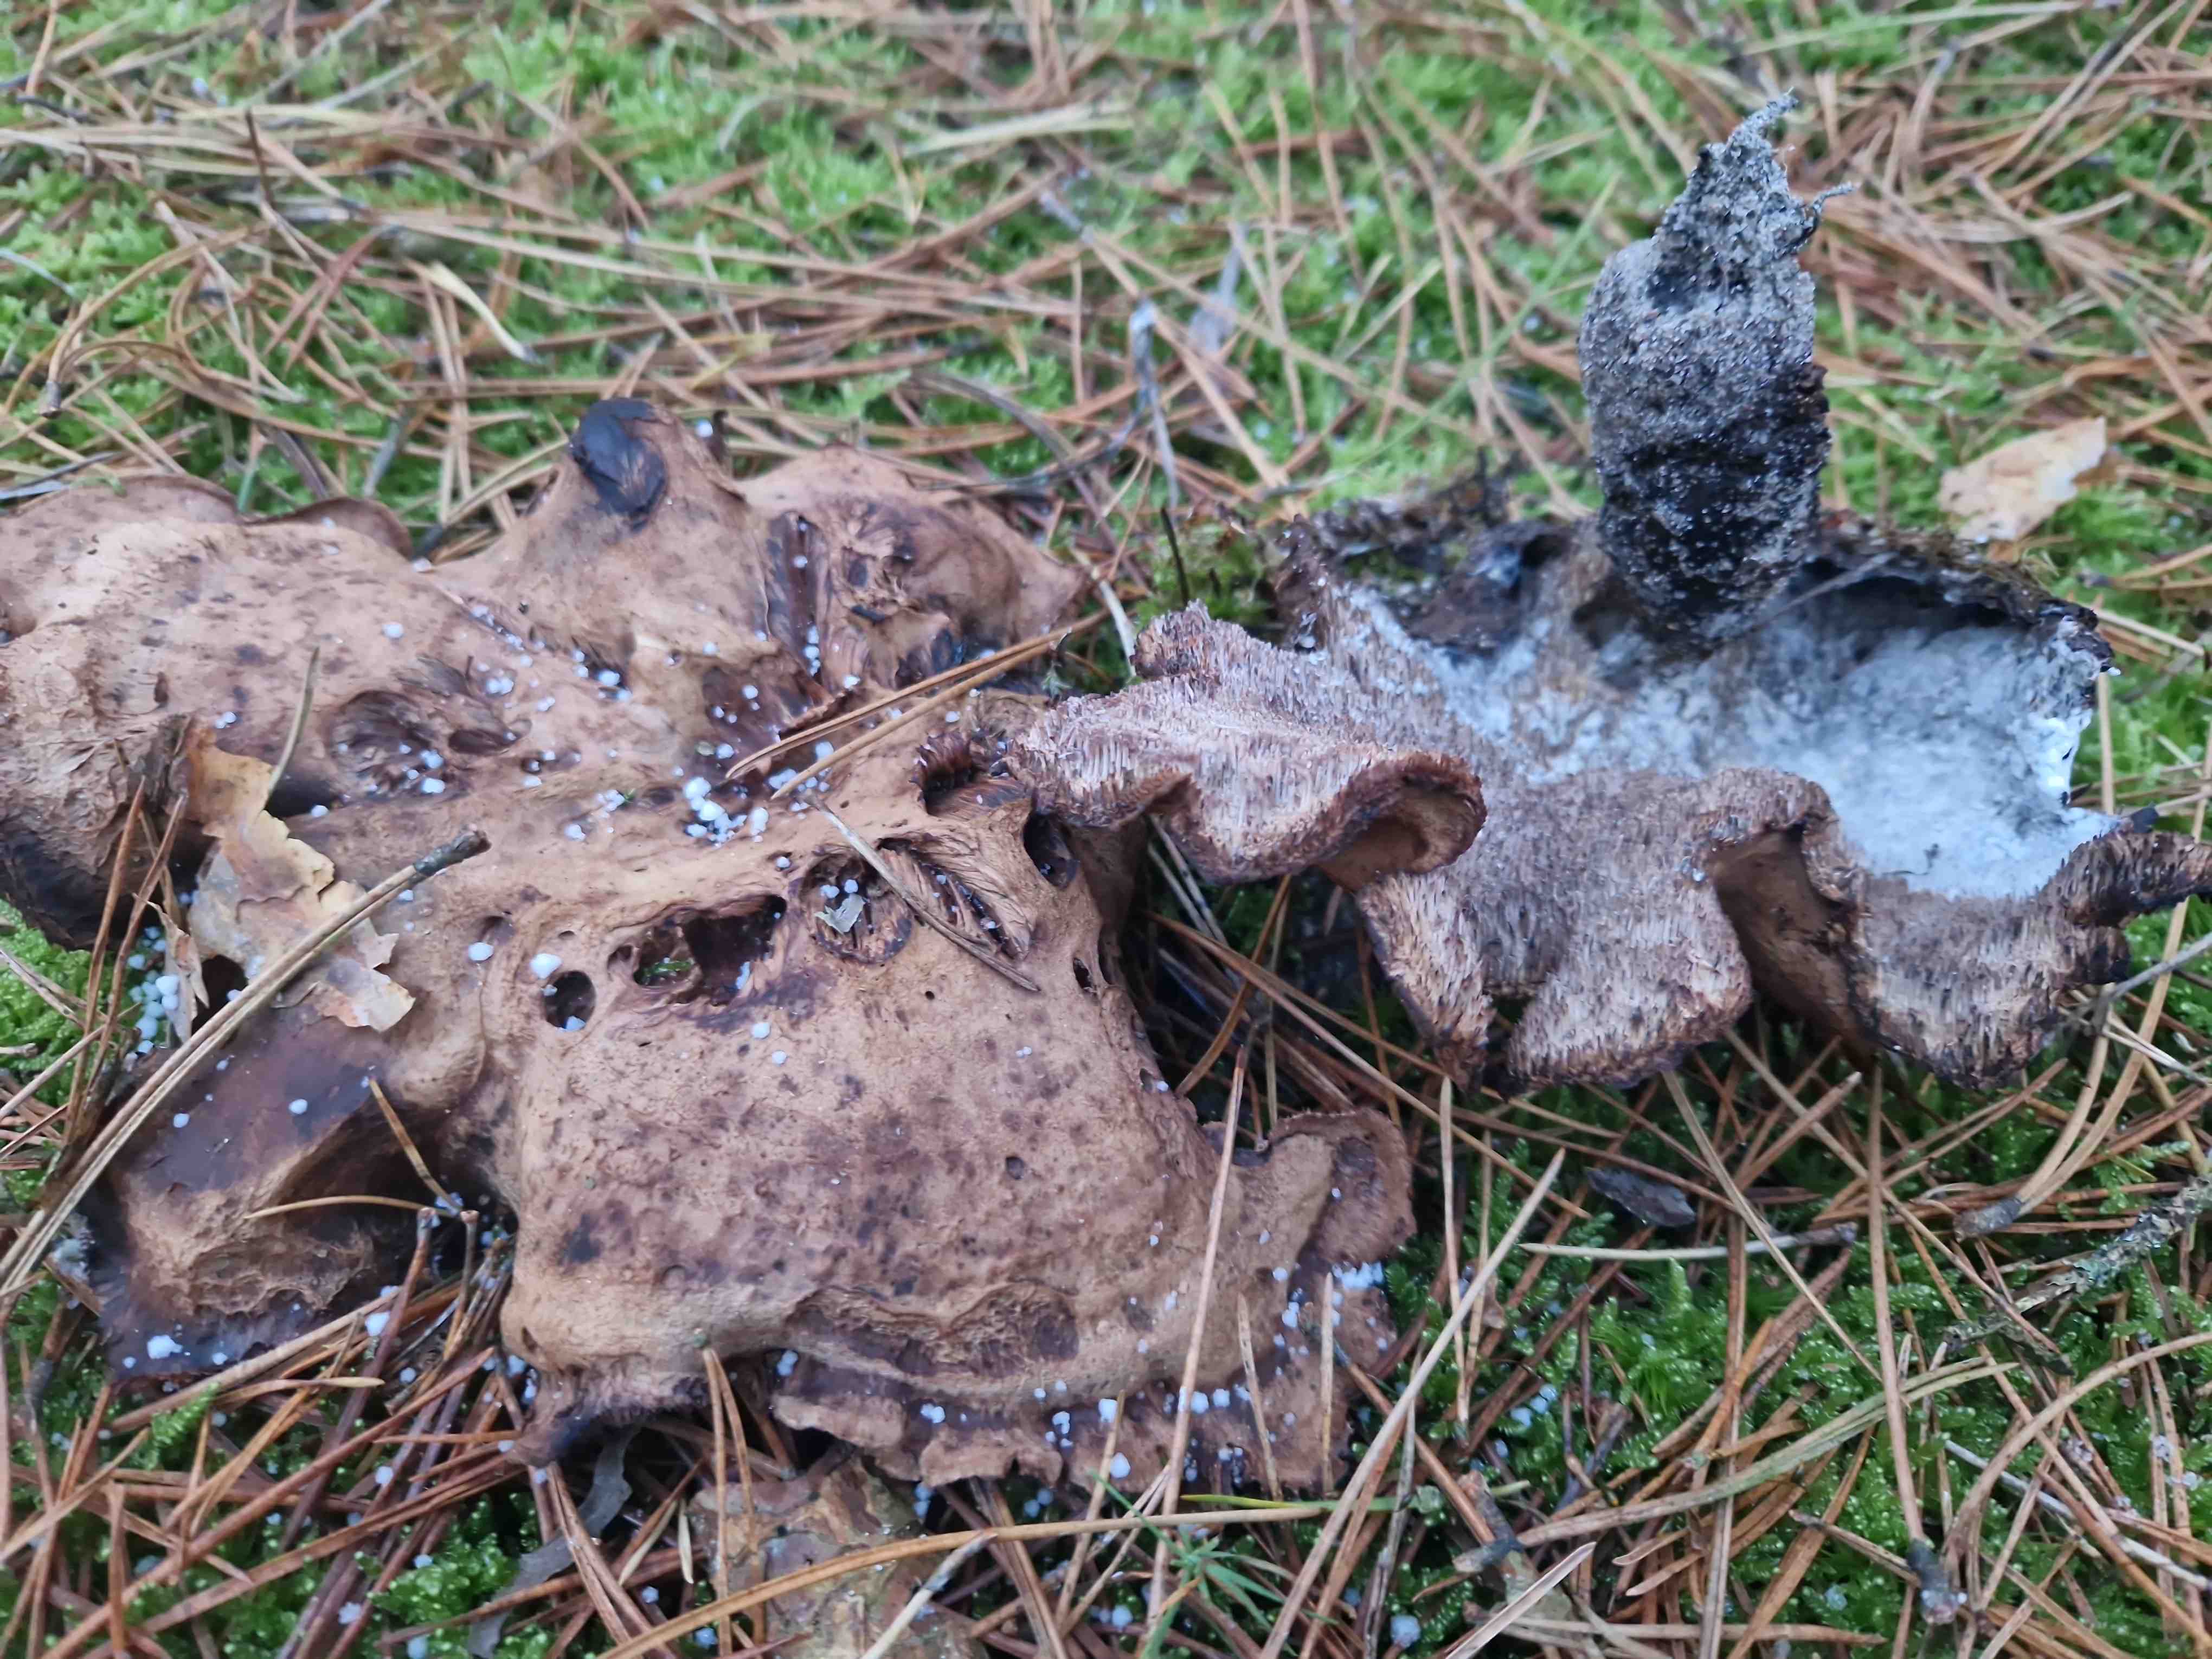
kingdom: Fungi
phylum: Basidiomycota
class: Agaricomycetes
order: Thelephorales
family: Thelephoraceae
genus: Phellodon
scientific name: Phellodon fuligineoalbus
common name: pjusket duftpigsvamp
